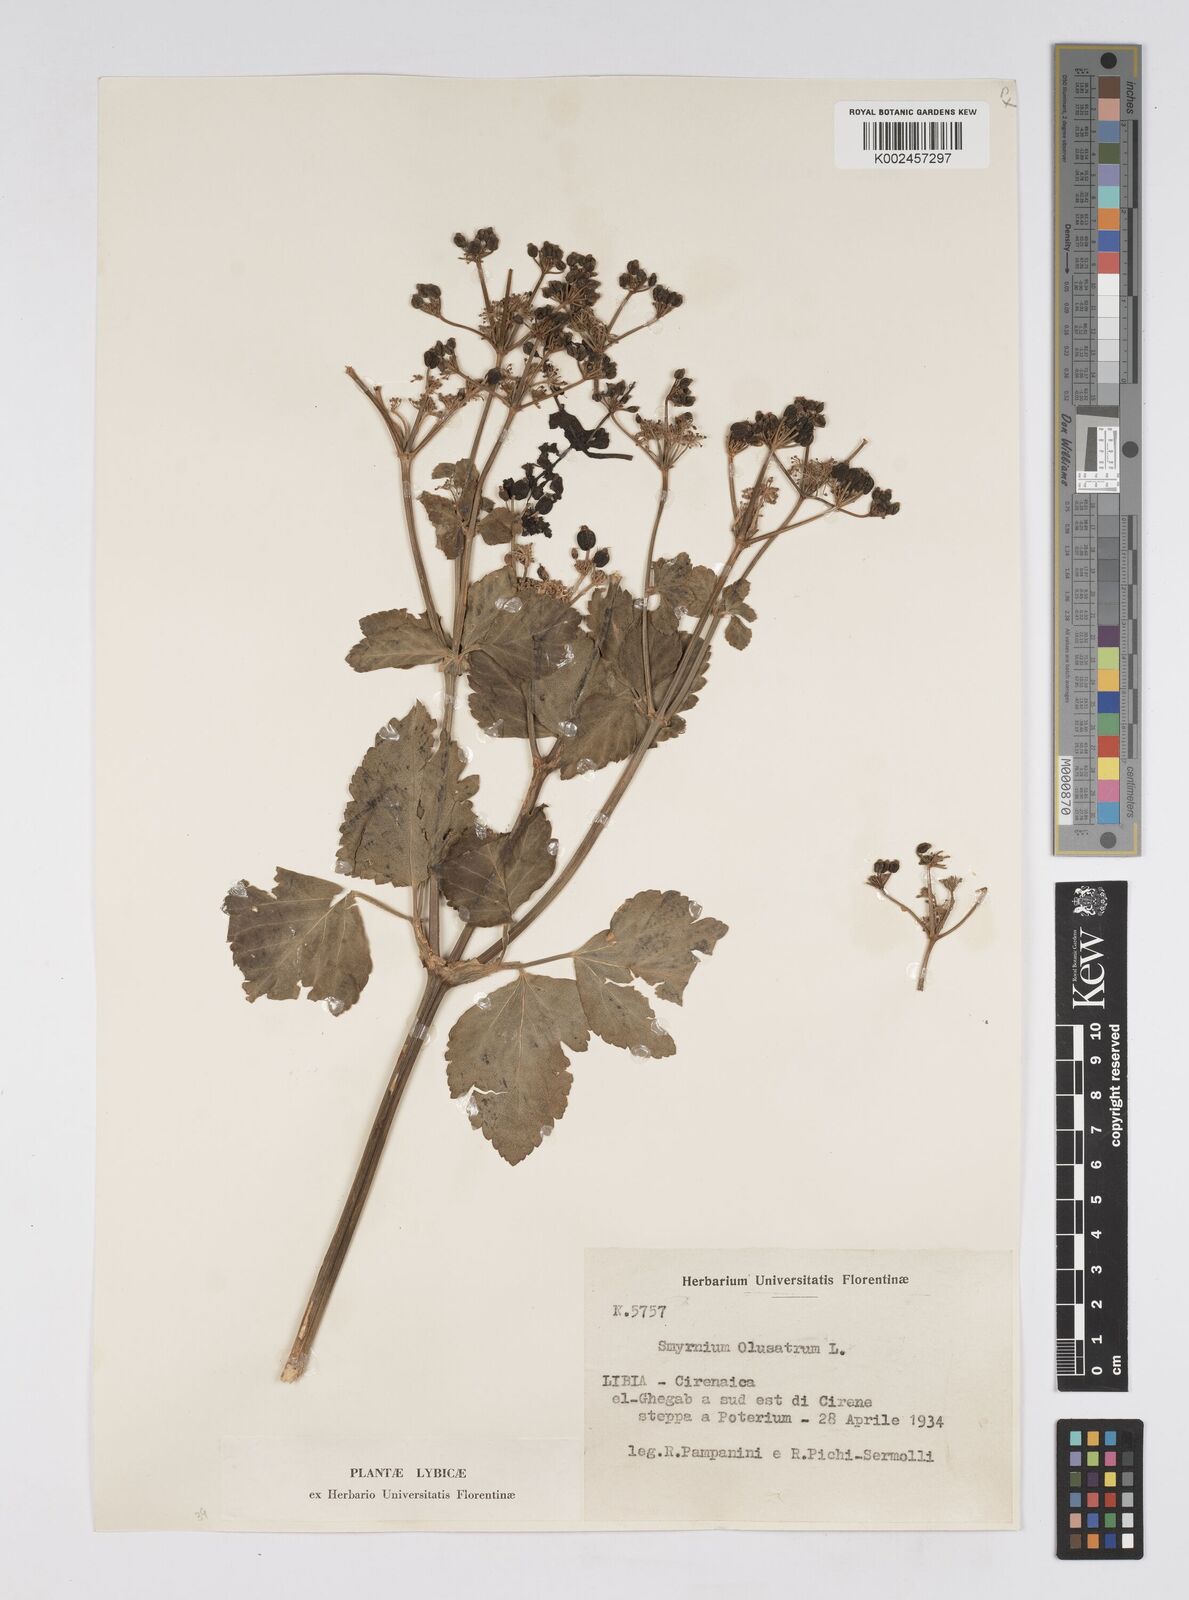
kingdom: Plantae
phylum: Tracheophyta
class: Magnoliopsida
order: Apiales
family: Apiaceae
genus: Smyrnium
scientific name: Smyrnium olusatrum
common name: Alexanders
